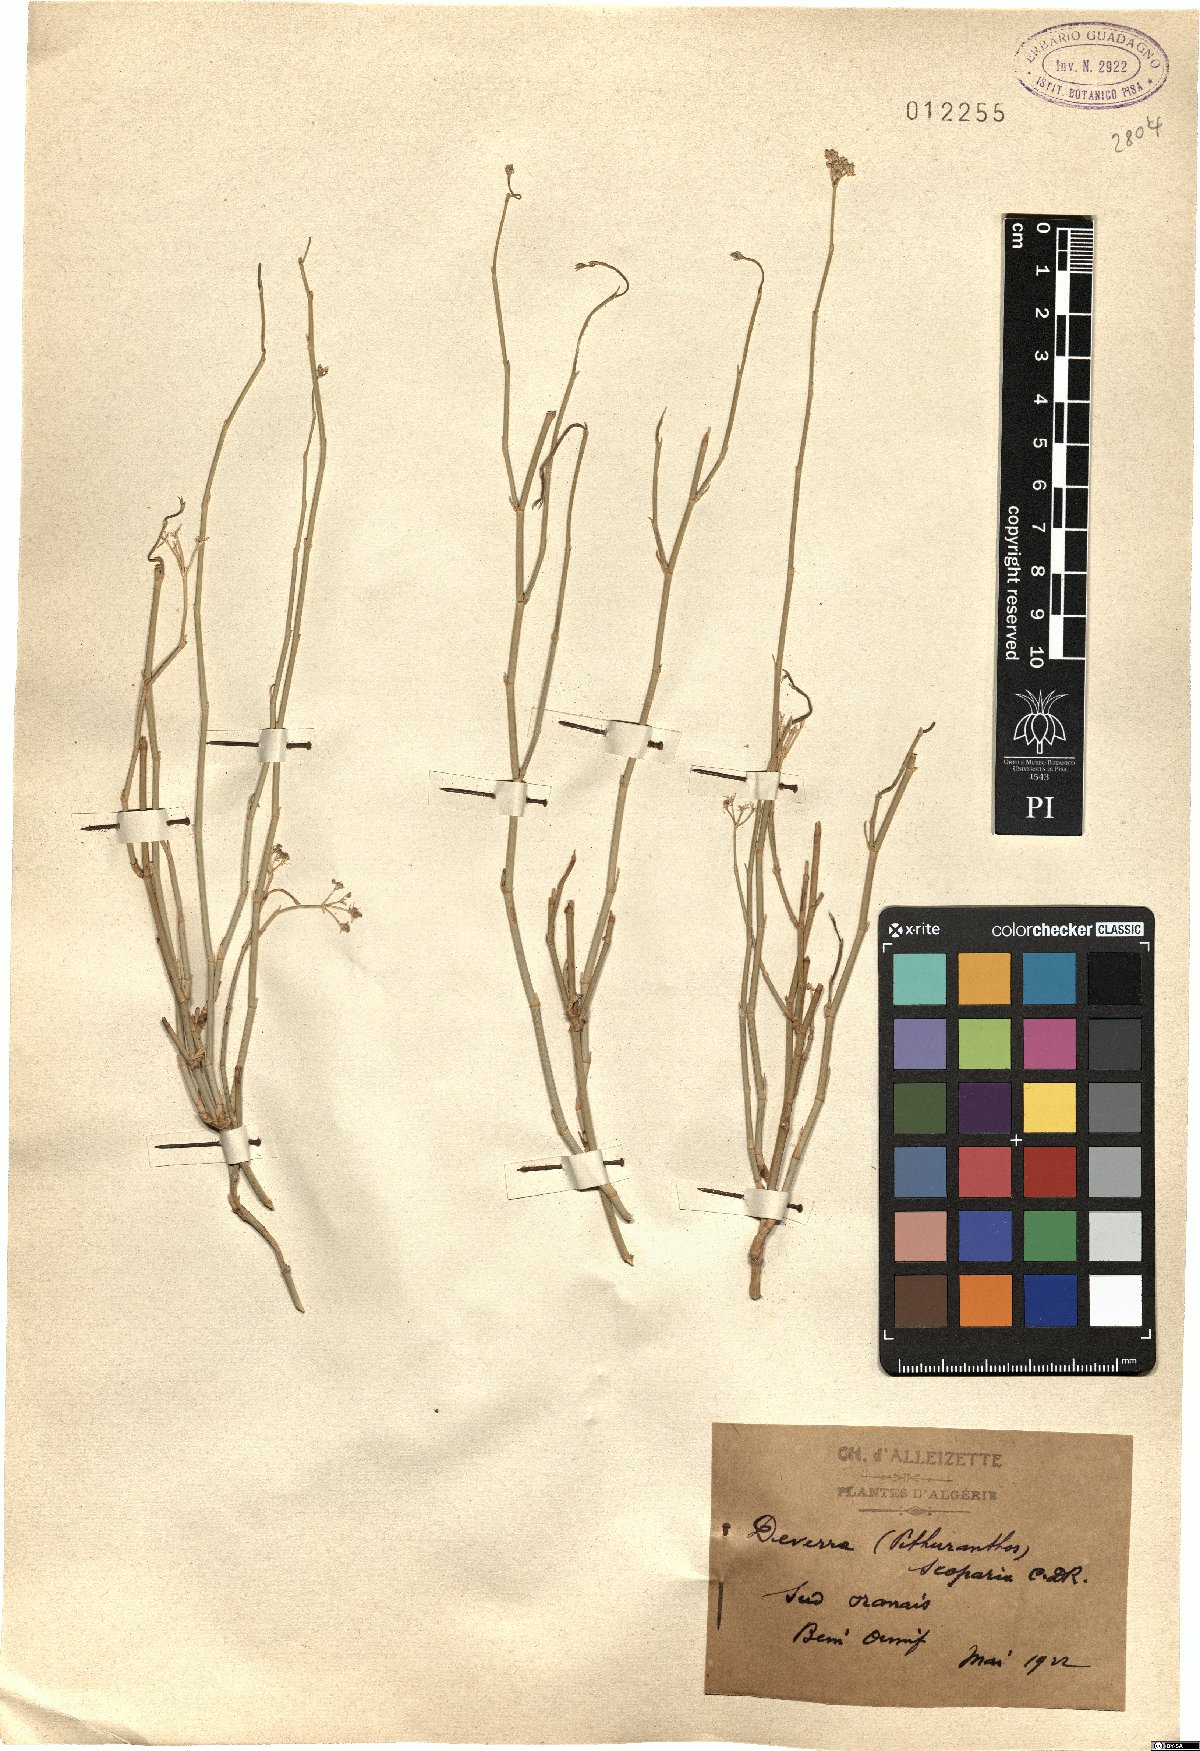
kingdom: Plantae
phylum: Tracheophyta
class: Magnoliopsida
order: Apiales
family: Apiaceae
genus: Deverra
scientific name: Deverra scoparia
